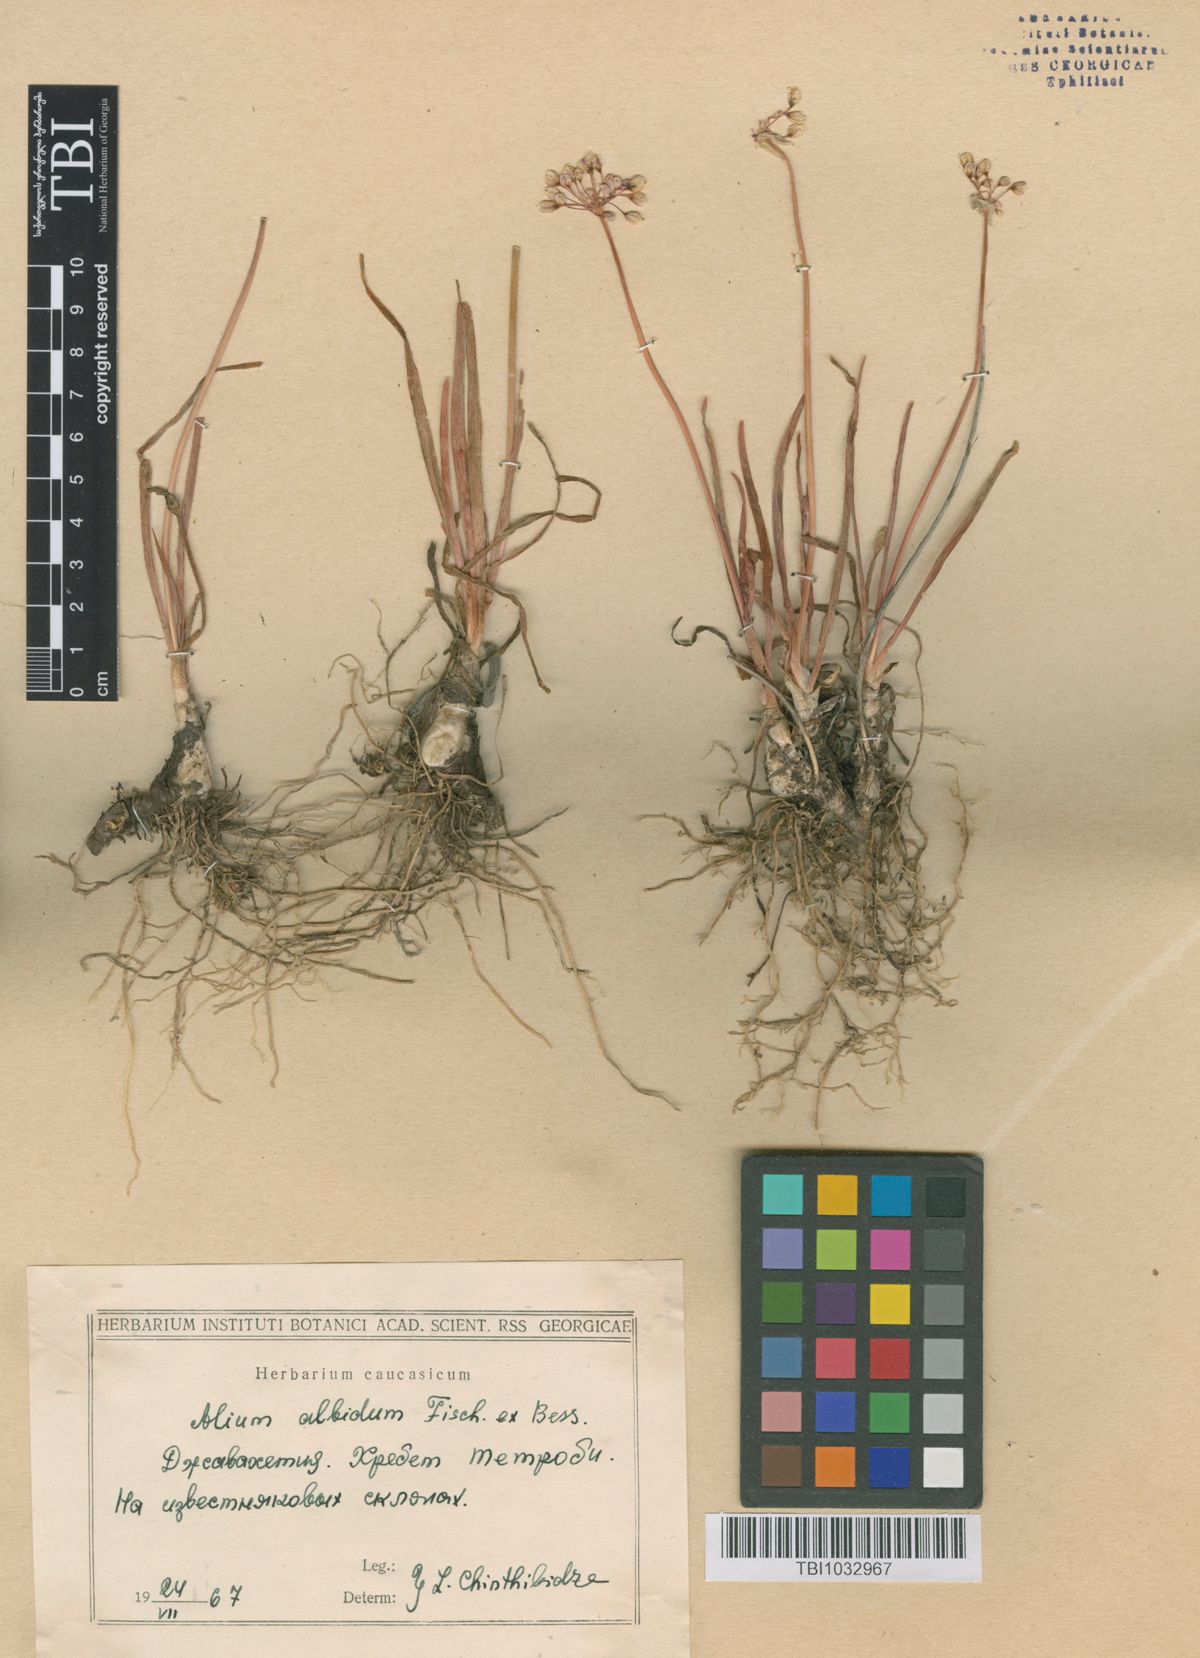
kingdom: Plantae
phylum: Tracheophyta
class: Liliopsida
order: Asparagales
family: Amaryllidaceae
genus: Allium
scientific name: Allium denudatum
